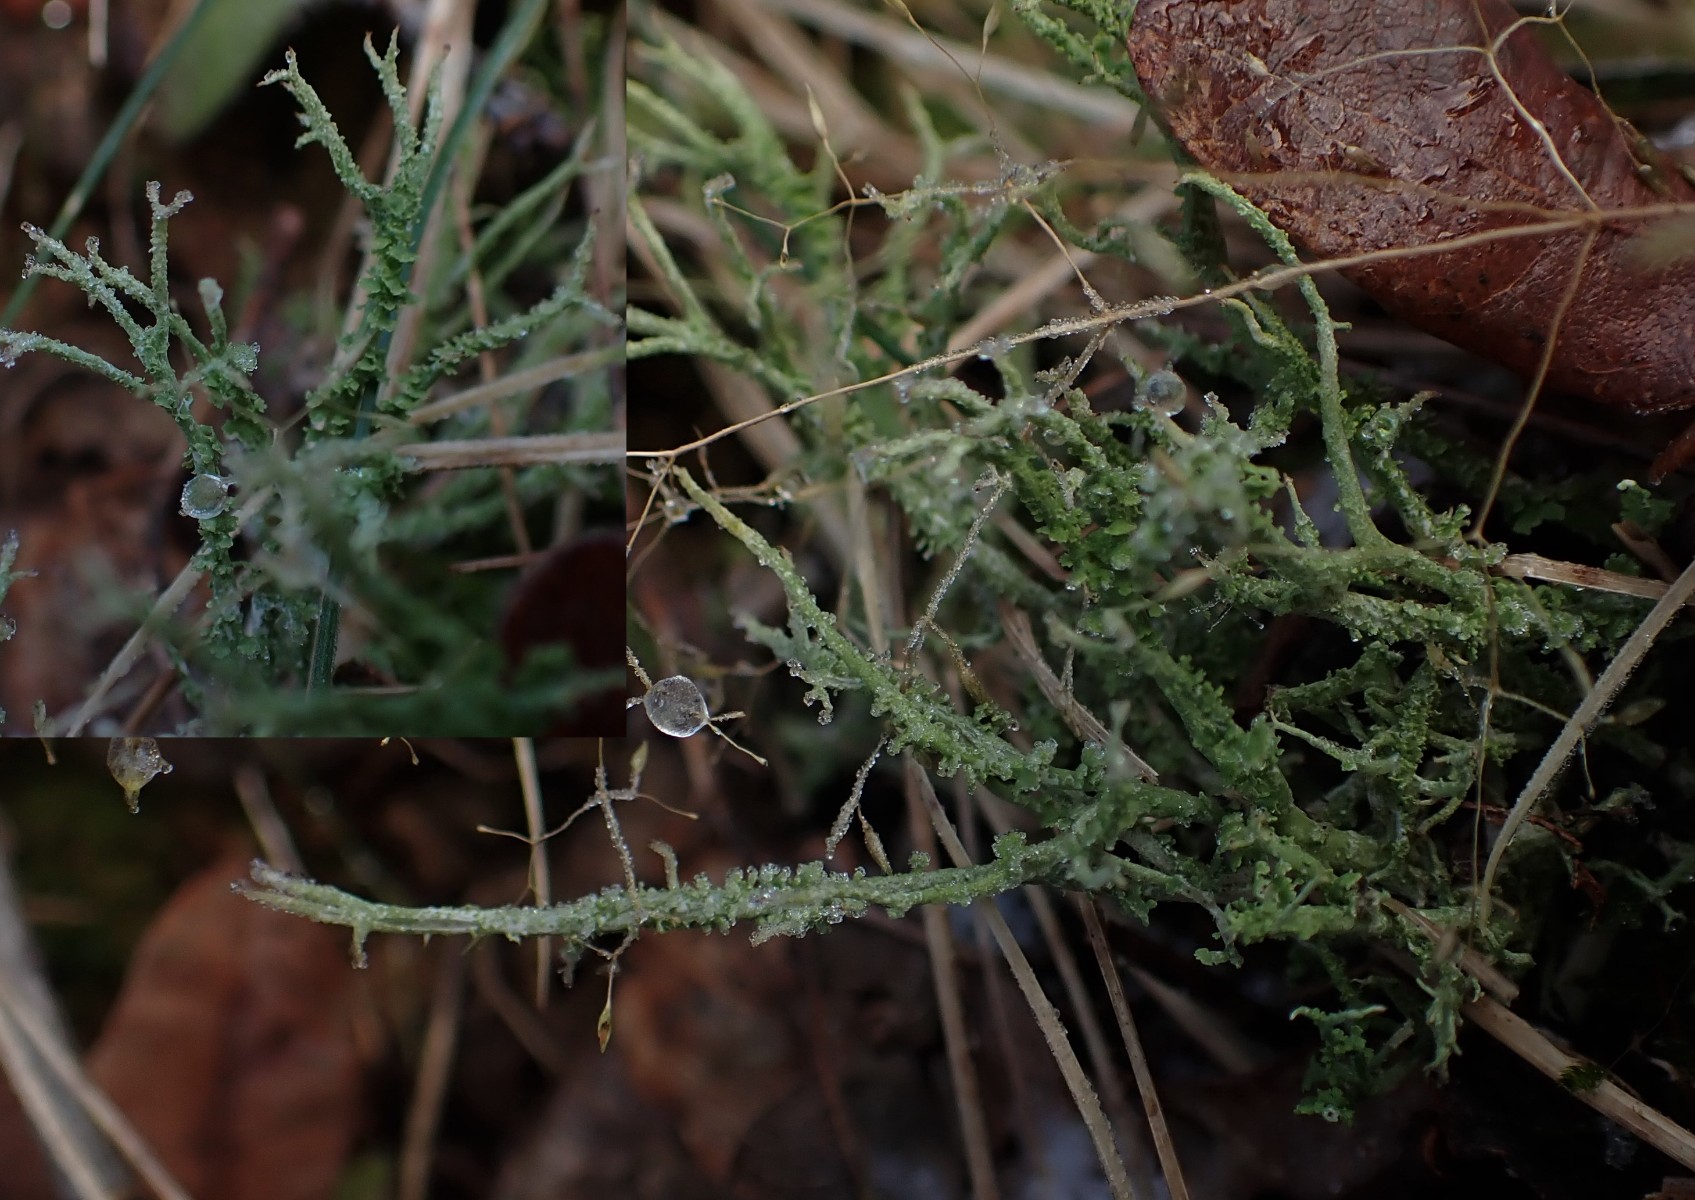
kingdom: Fungi
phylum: Ascomycota
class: Lecanoromycetes
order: Lecanorales
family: Cladoniaceae
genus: Cladonia
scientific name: Cladonia scabriuscula
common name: ru bægerlav
